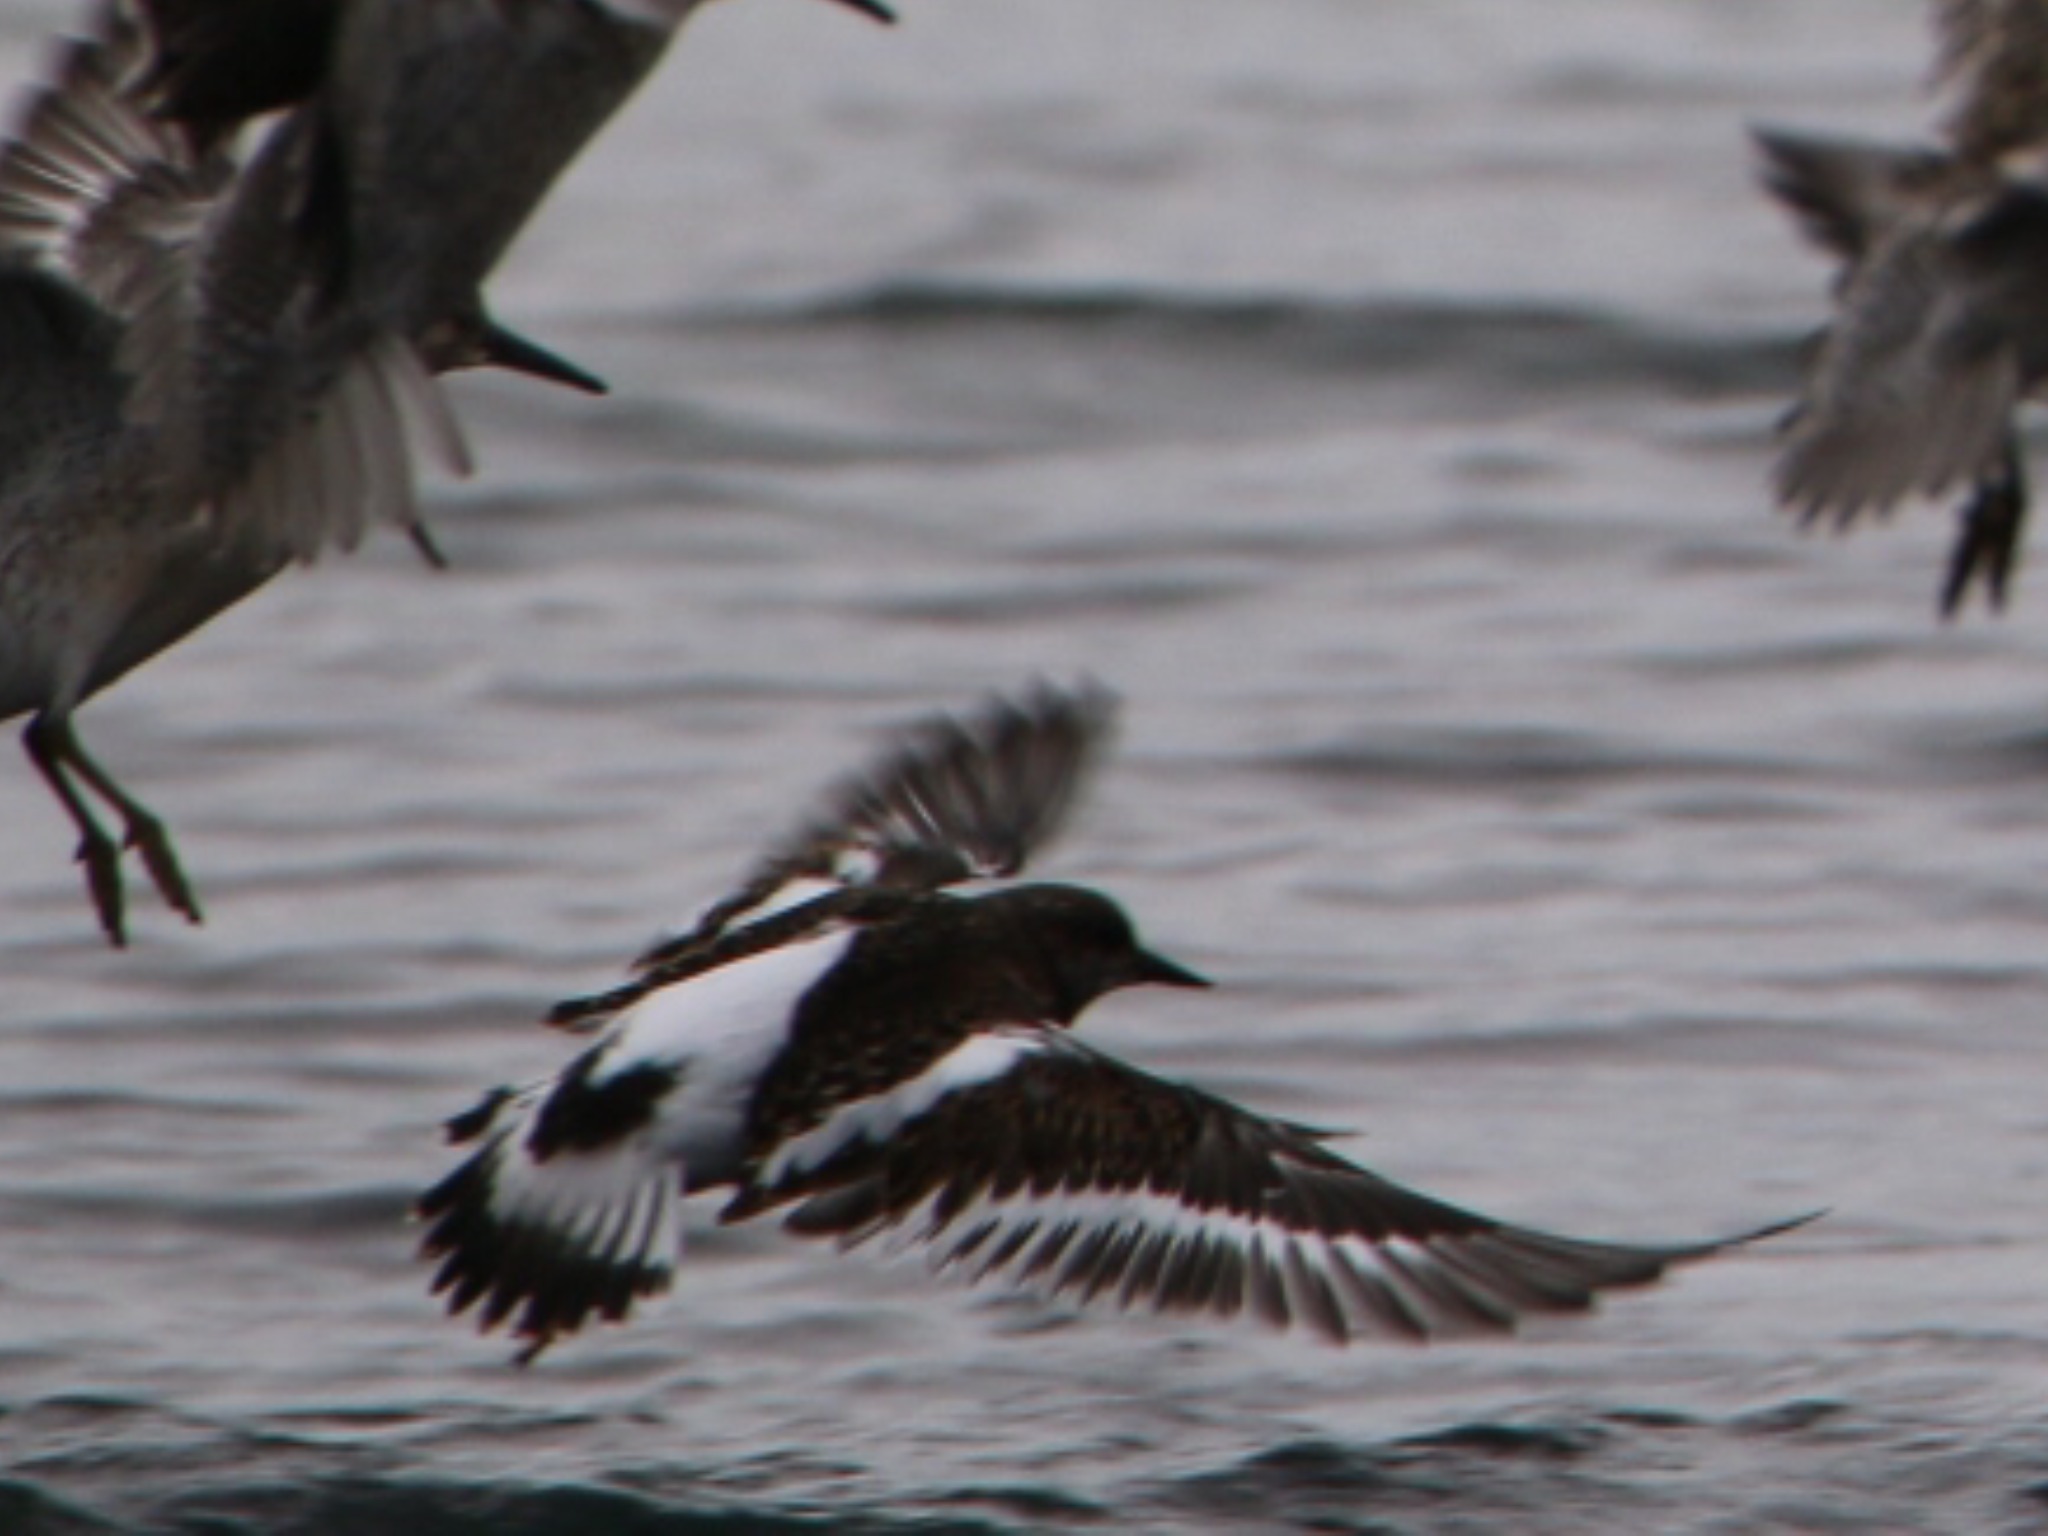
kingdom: Animalia
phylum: Chordata
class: Aves
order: Charadriiformes
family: Scolopacidae
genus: Arenaria
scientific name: Arenaria interpres
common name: Stenvender
